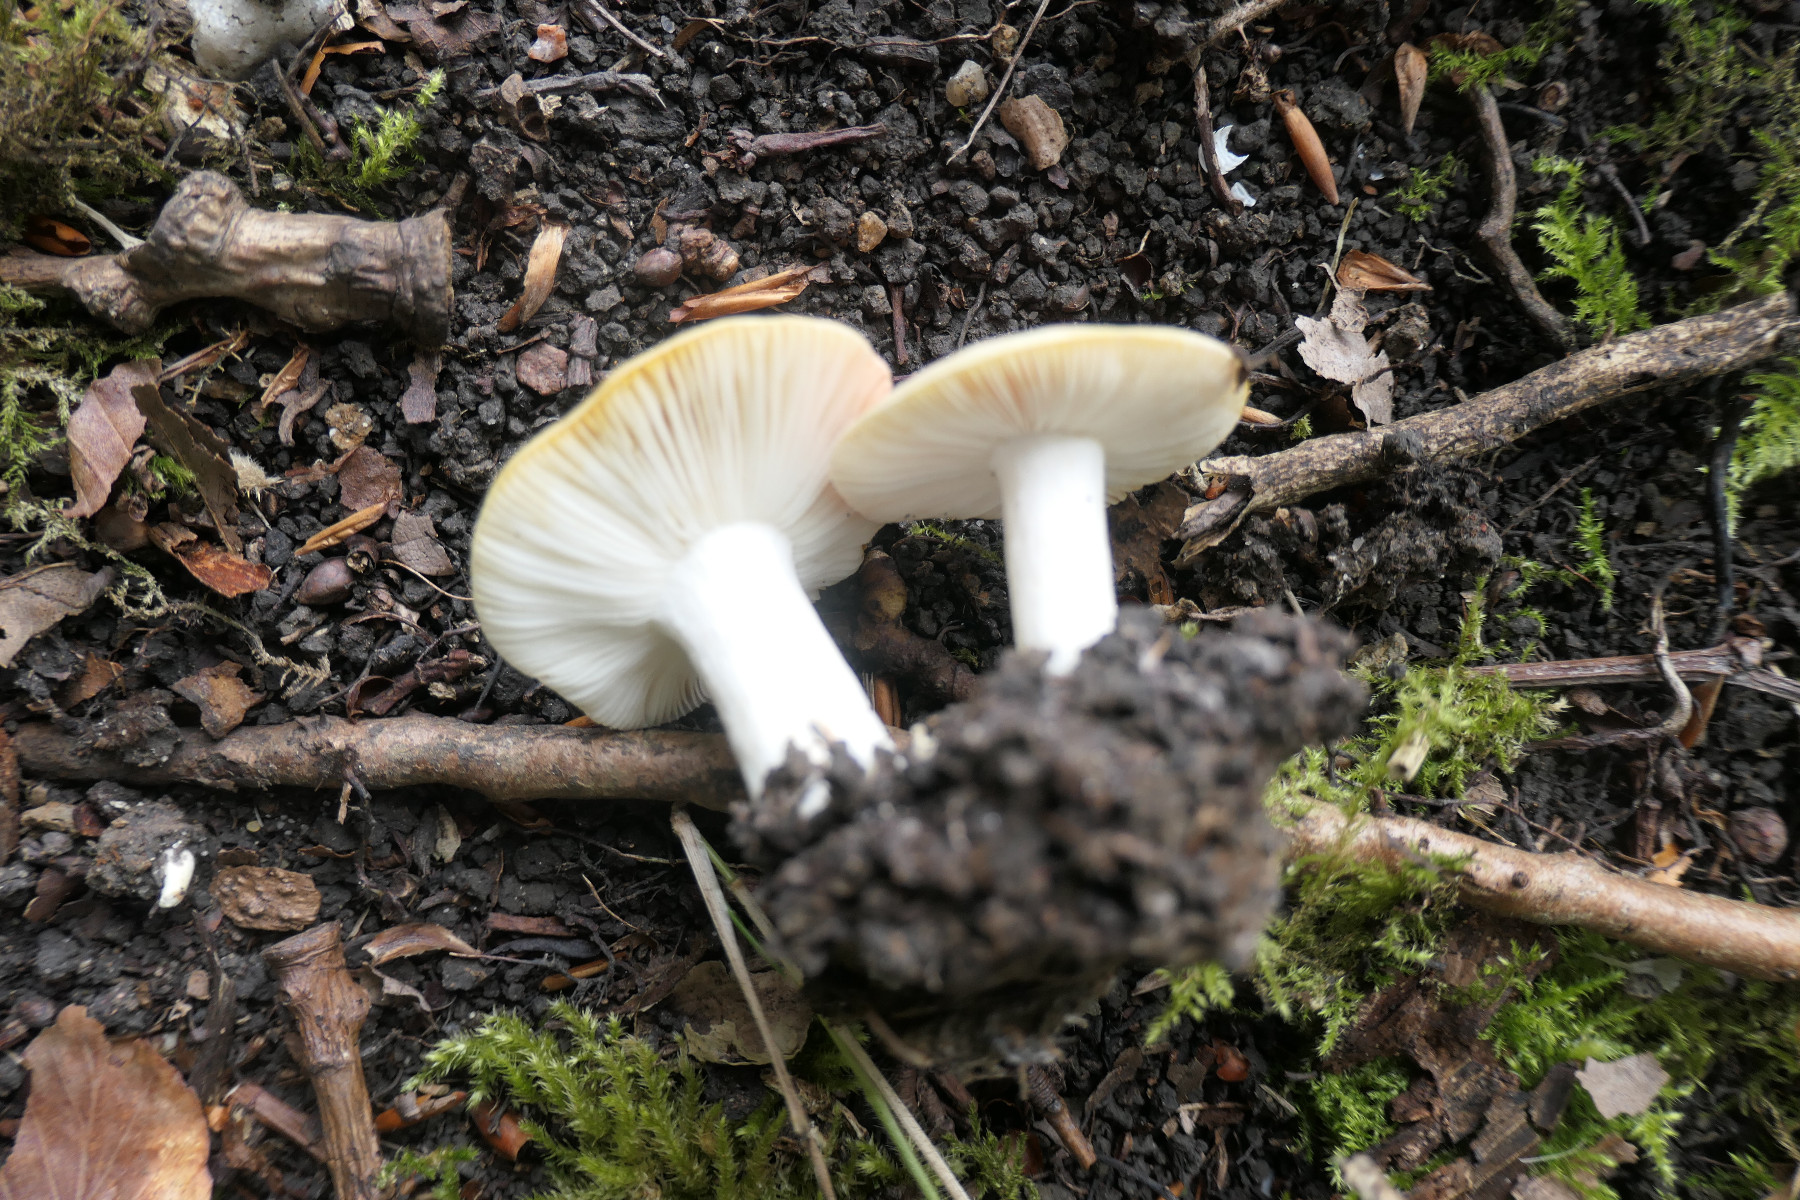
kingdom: Fungi
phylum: Basidiomycota
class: Agaricomycetes
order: Russulales
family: Russulaceae
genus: Russula
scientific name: Russula luteotacta
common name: gulplettet gift-skørhat
